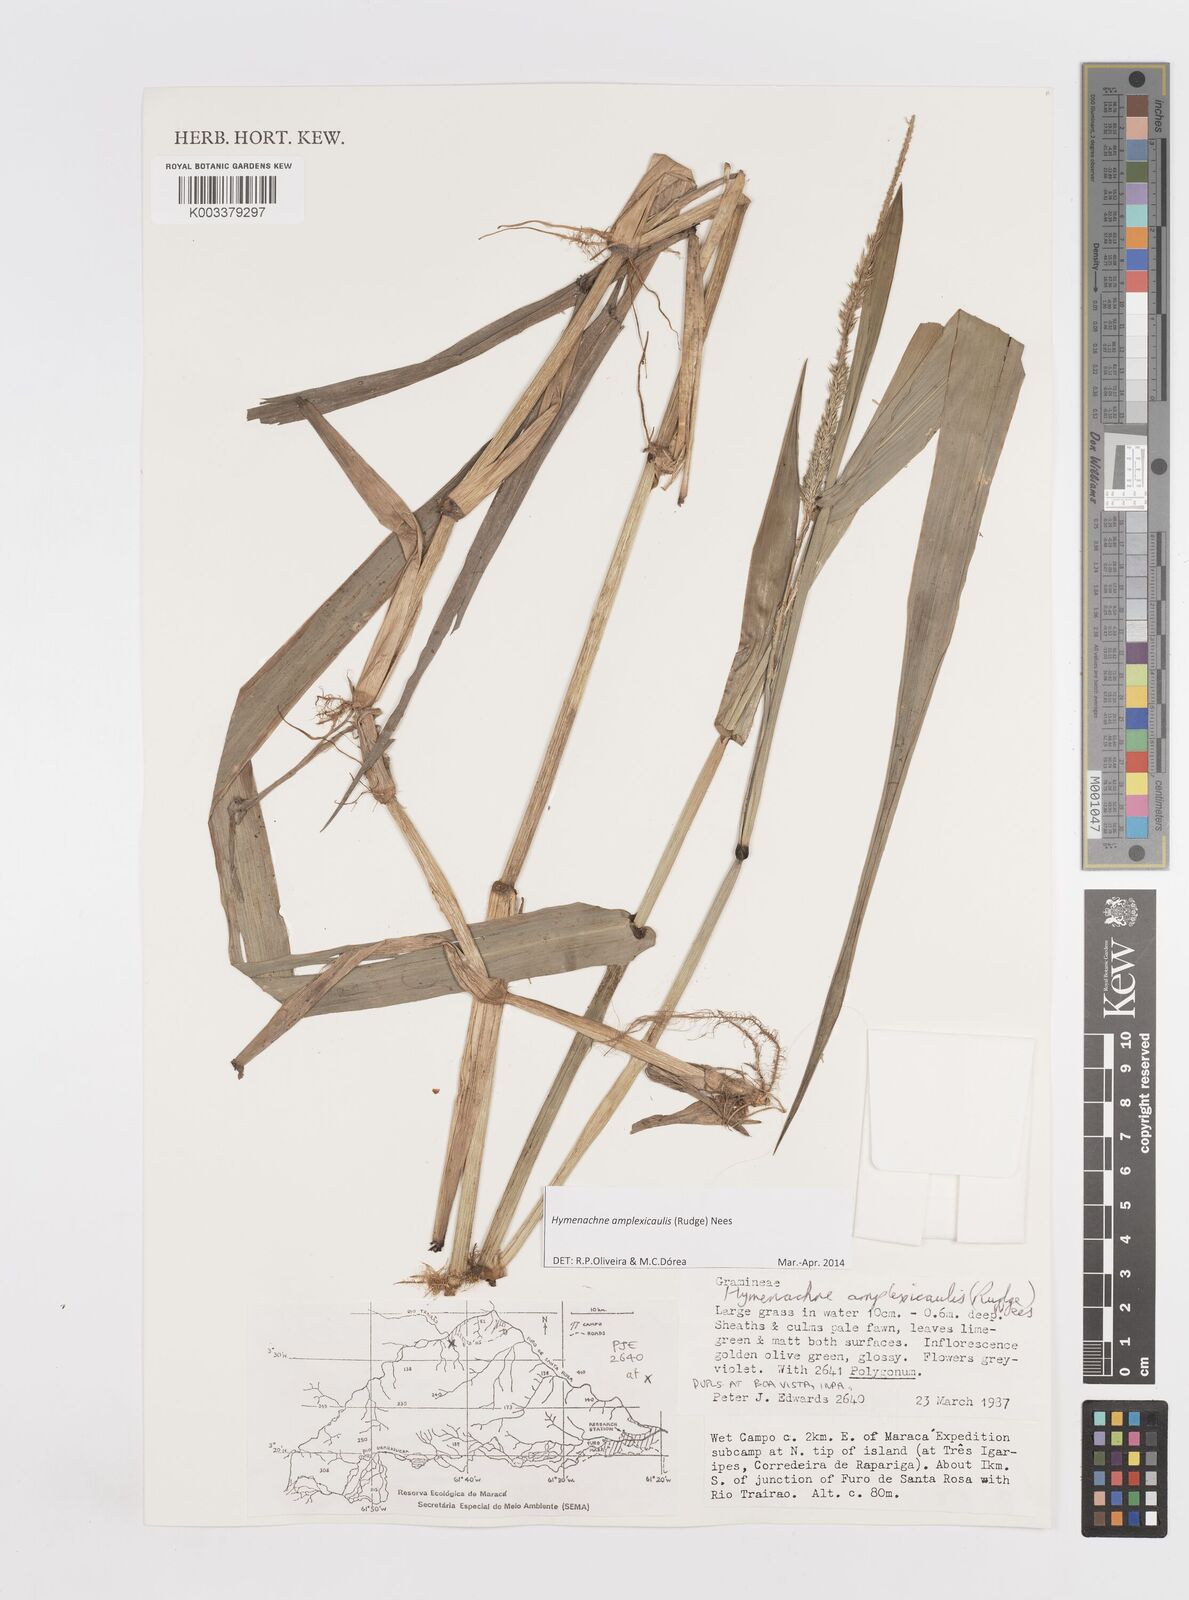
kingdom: Plantae
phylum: Tracheophyta
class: Liliopsida
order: Poales
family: Poaceae
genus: Hymenachne
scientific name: Hymenachne amplexicaulis
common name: Olive hymenachne
